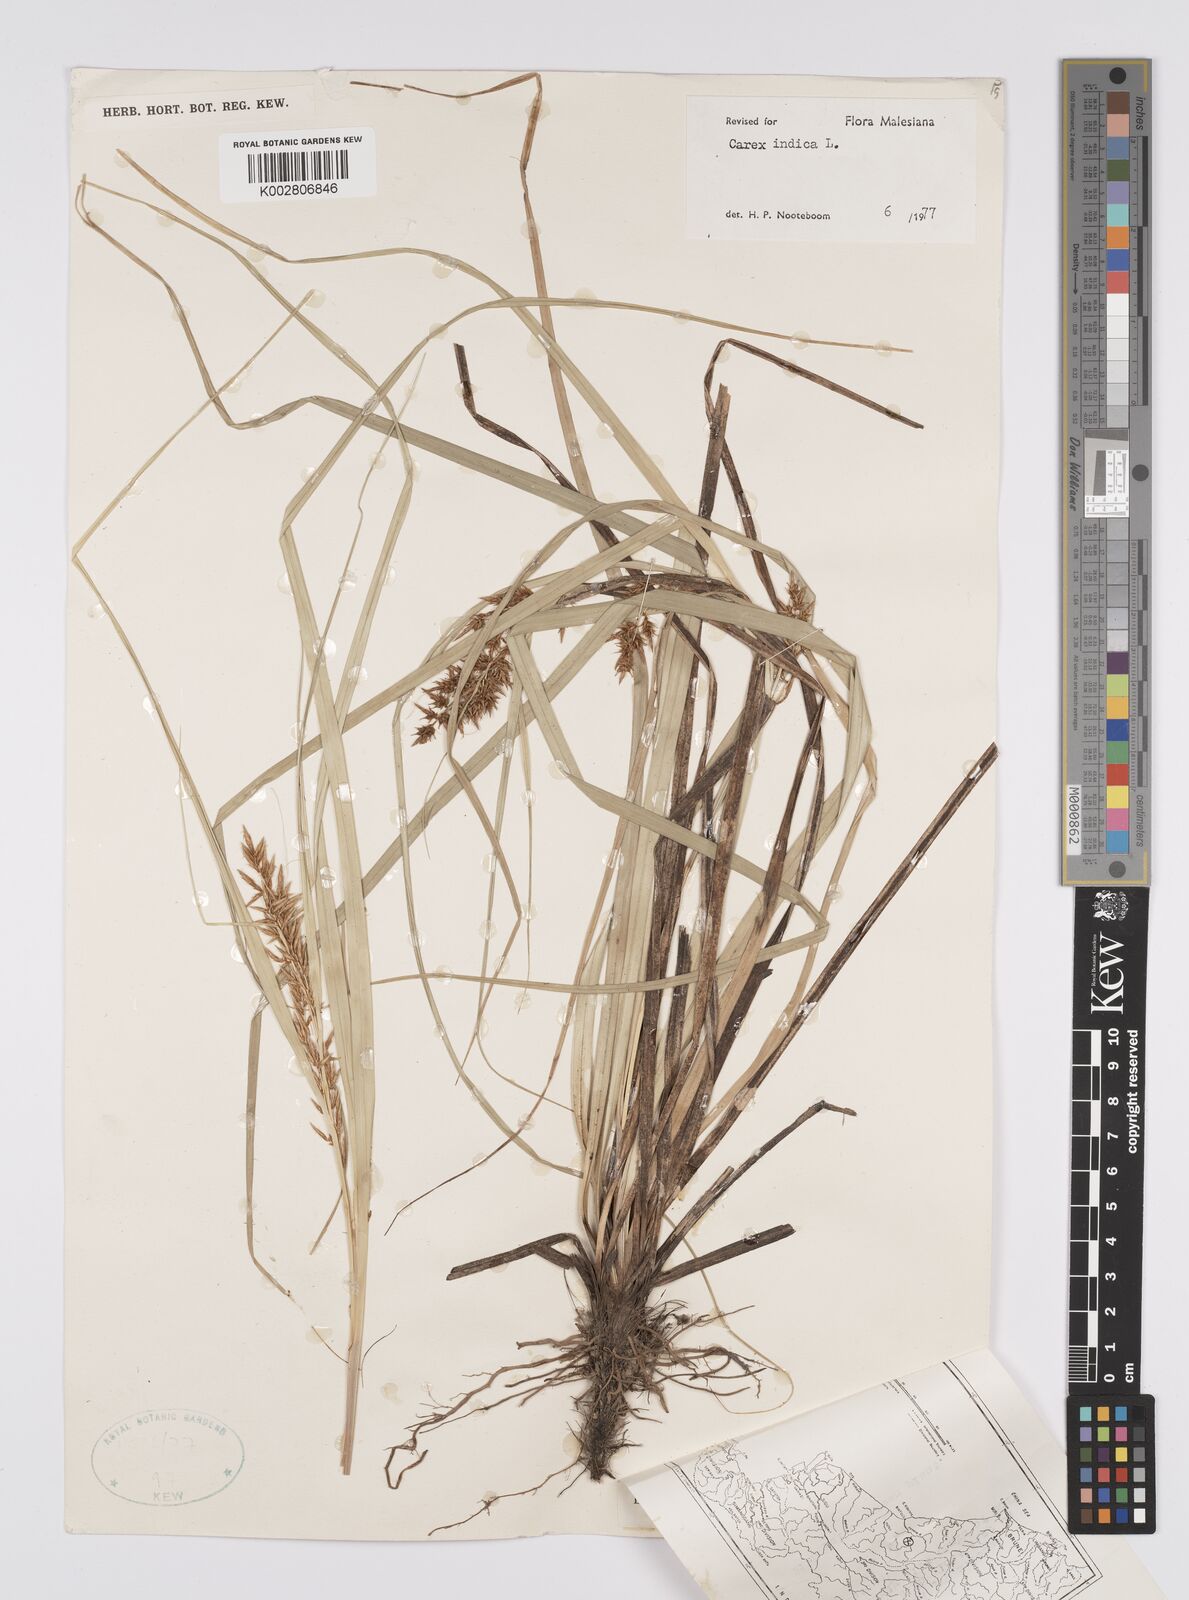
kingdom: Plantae
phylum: Tracheophyta
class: Liliopsida
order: Poales
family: Cyperaceae
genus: Carex
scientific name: Carex indica
